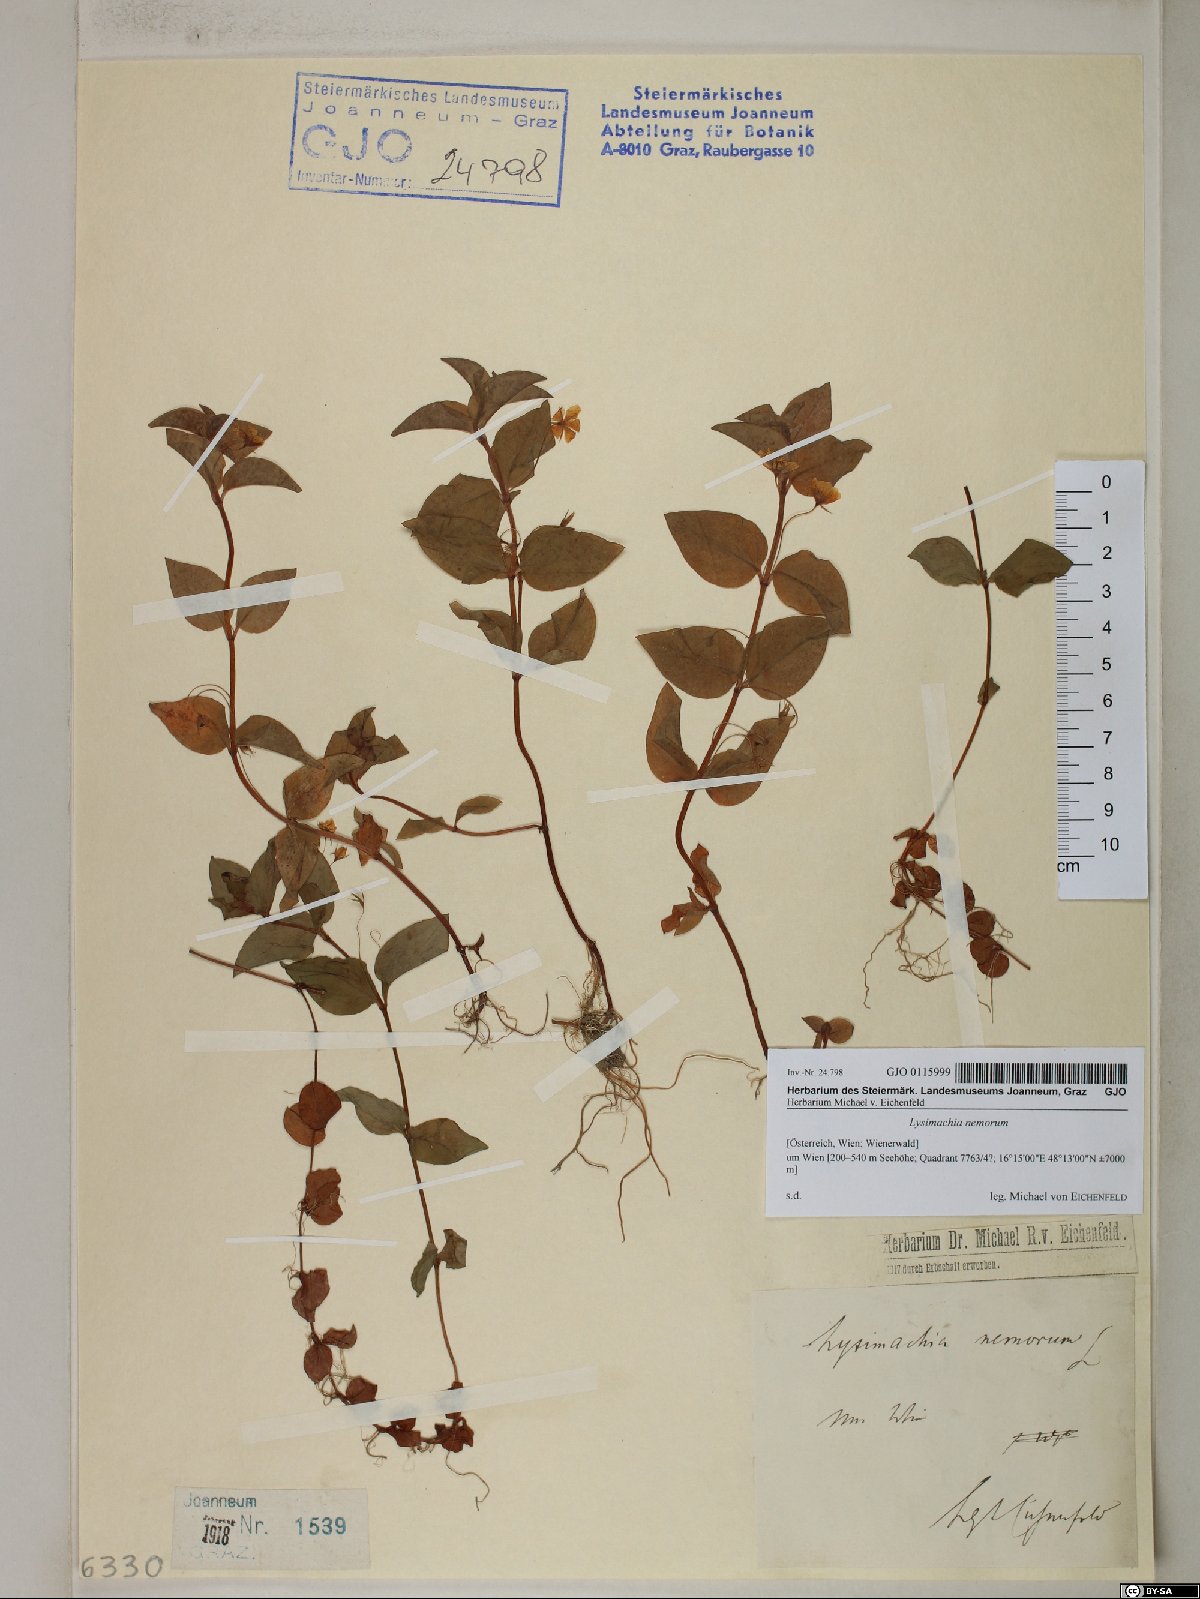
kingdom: Plantae
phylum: Tracheophyta
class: Magnoliopsida
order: Ericales
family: Primulaceae
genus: Lysimachia
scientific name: Lysimachia nemorum
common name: Yellow pimpernel
